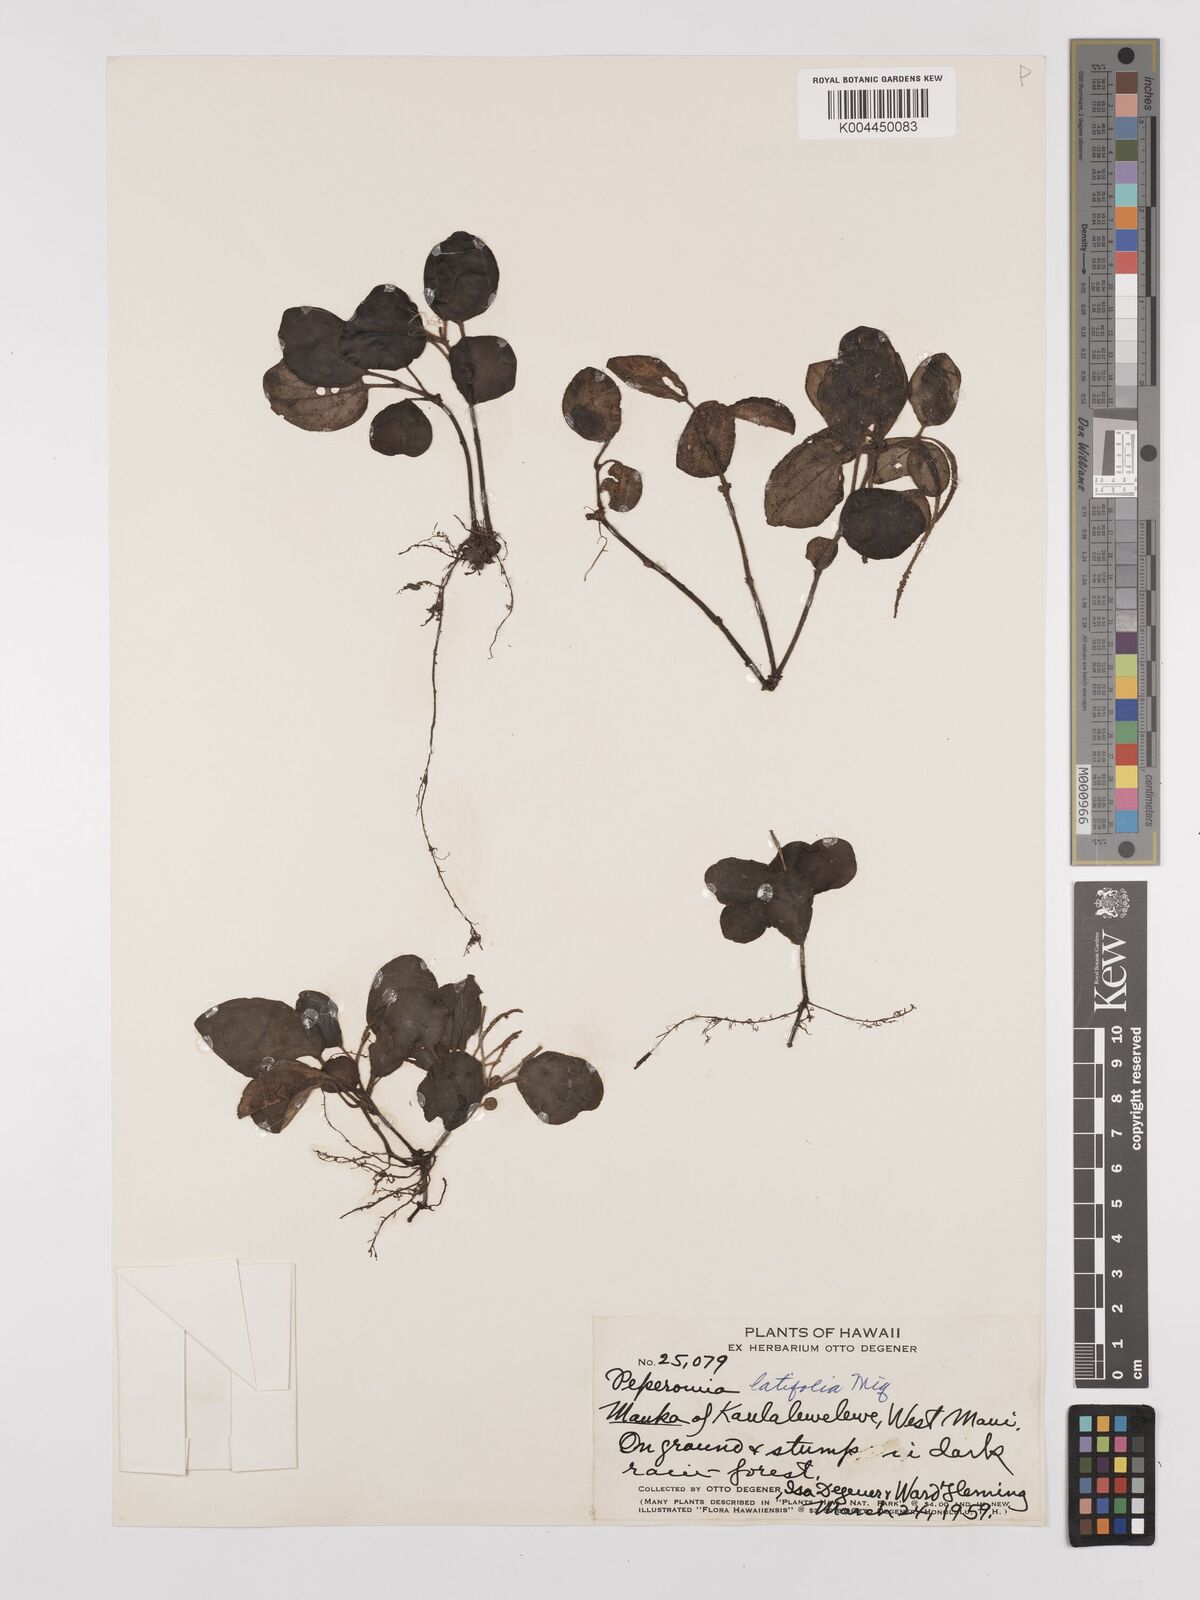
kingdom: Plantae
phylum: Tracheophyta
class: Magnoliopsida
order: Piperales
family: Piperaceae
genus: Peperomia
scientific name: Peperomia latifolia
